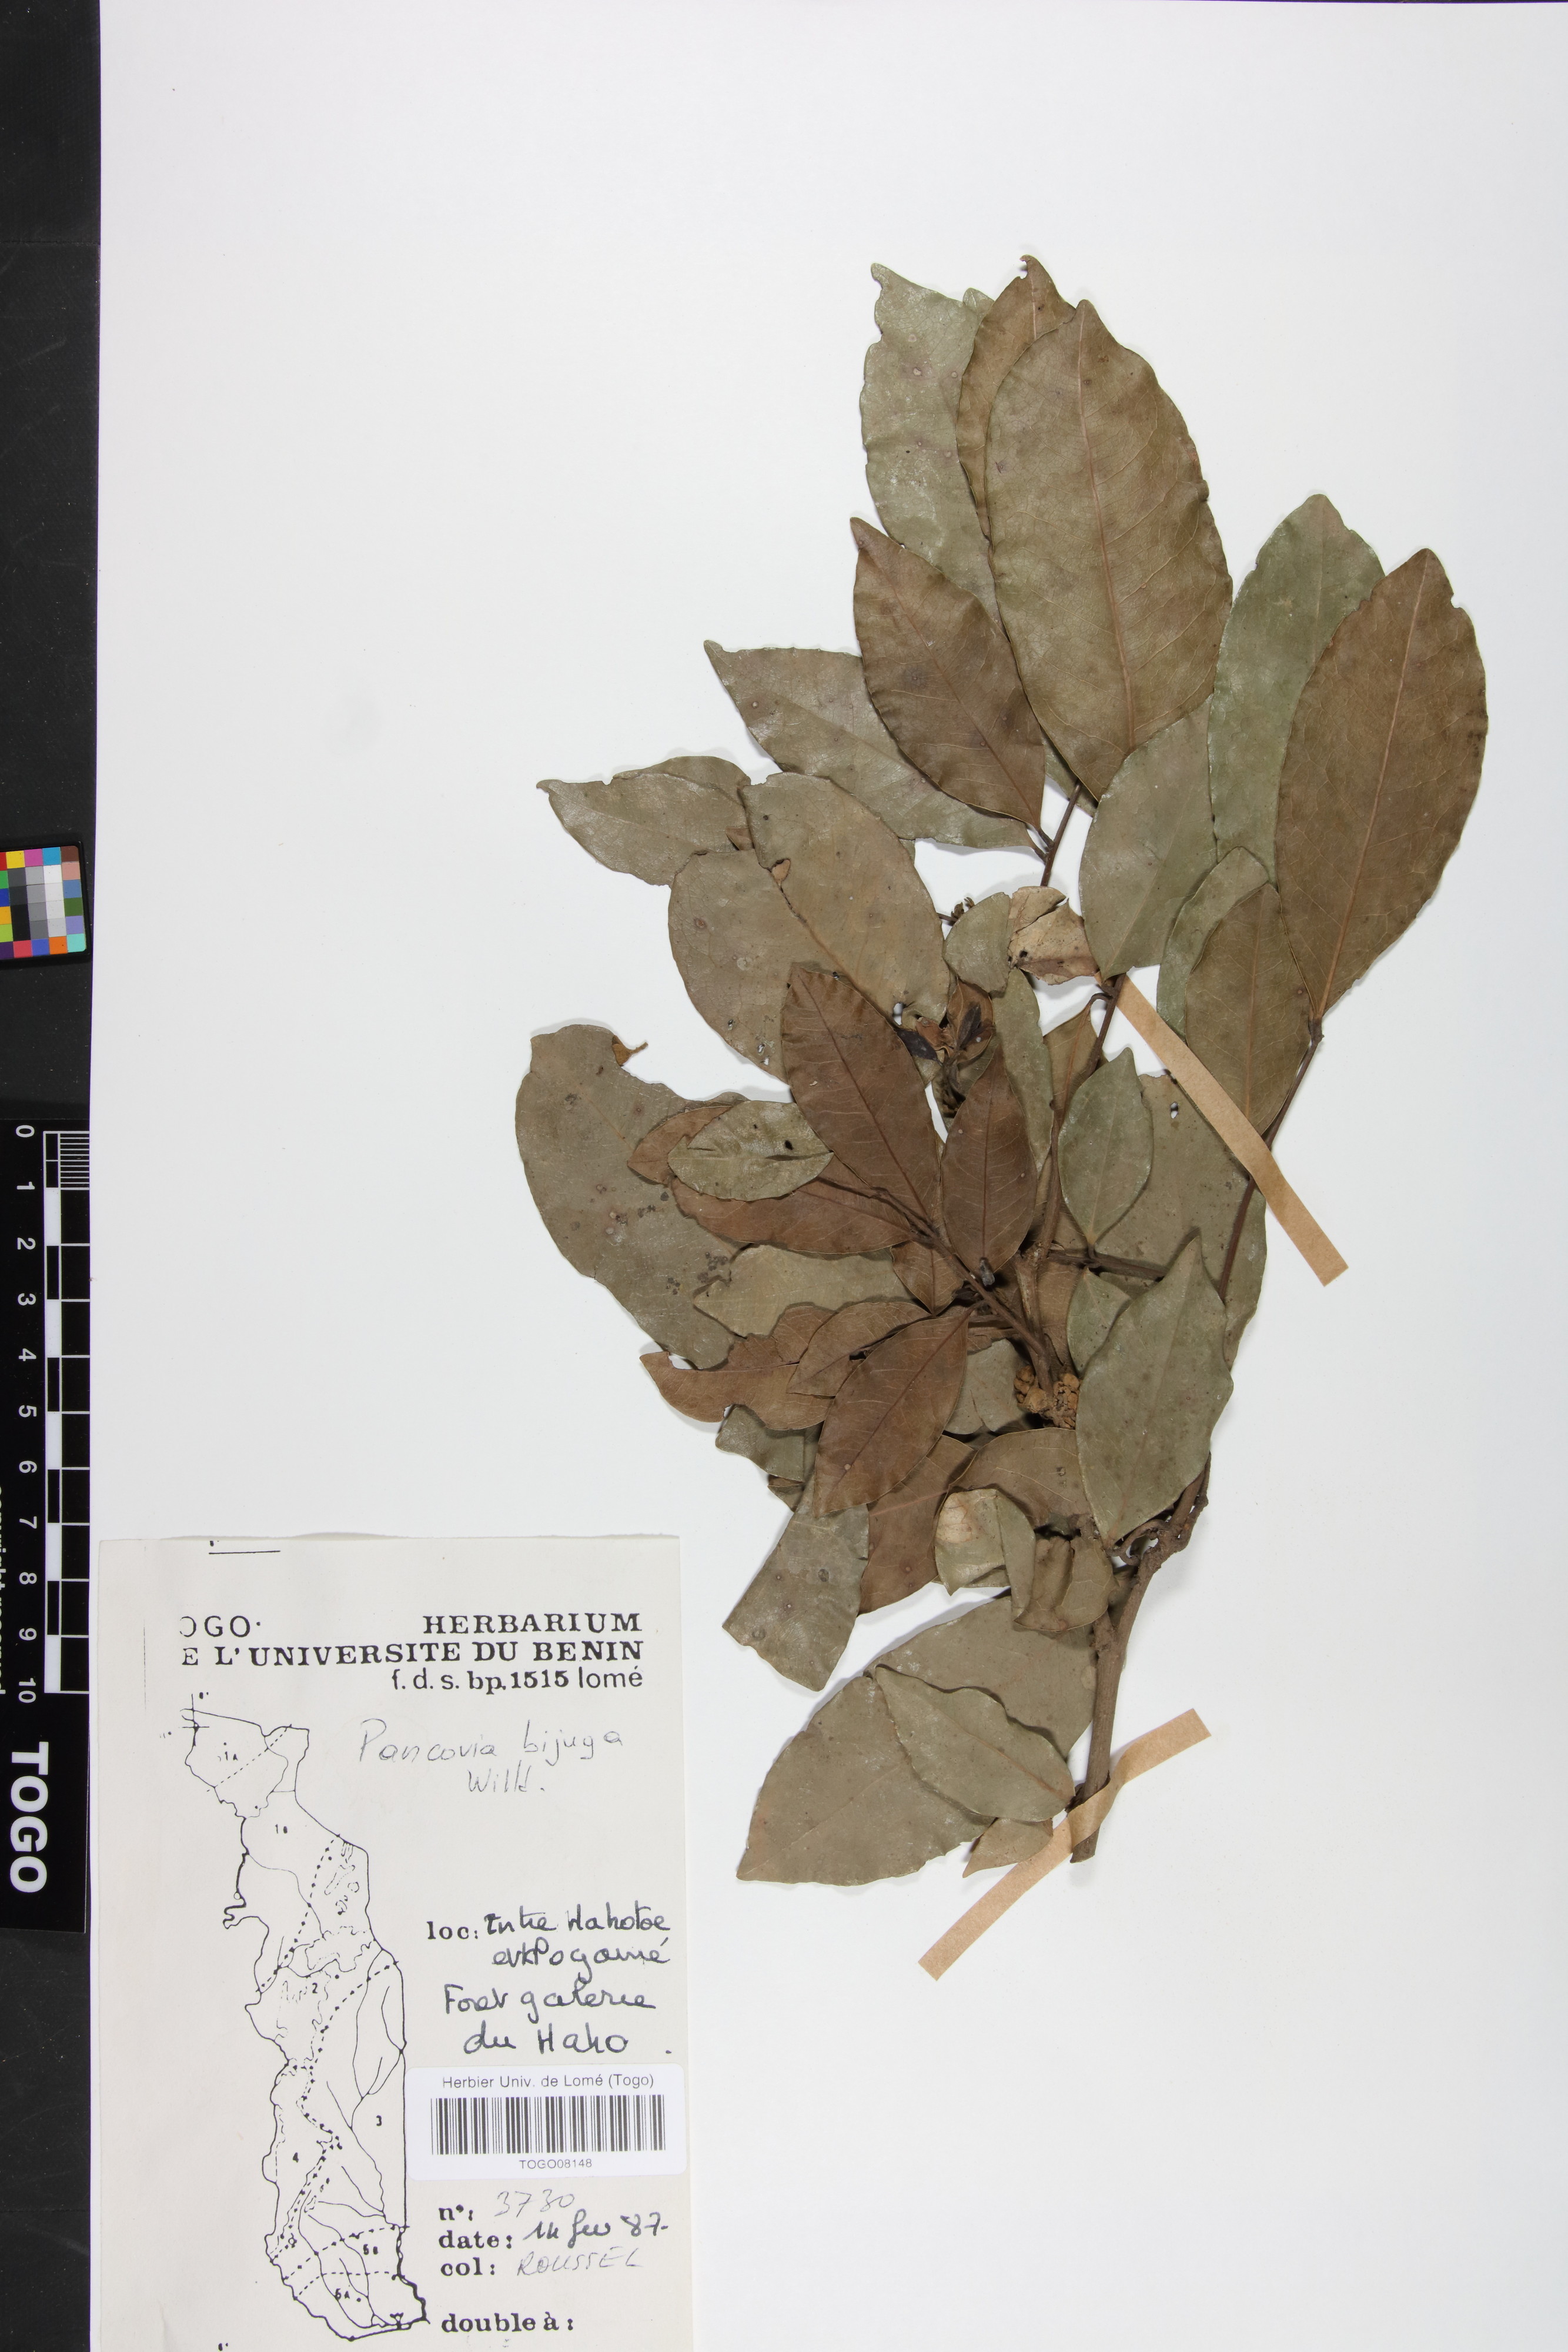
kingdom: Plantae
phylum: Tracheophyta
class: Magnoliopsida
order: Sapindales
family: Sapindaceae
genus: Pancovia
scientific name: Pancovia bijuga
